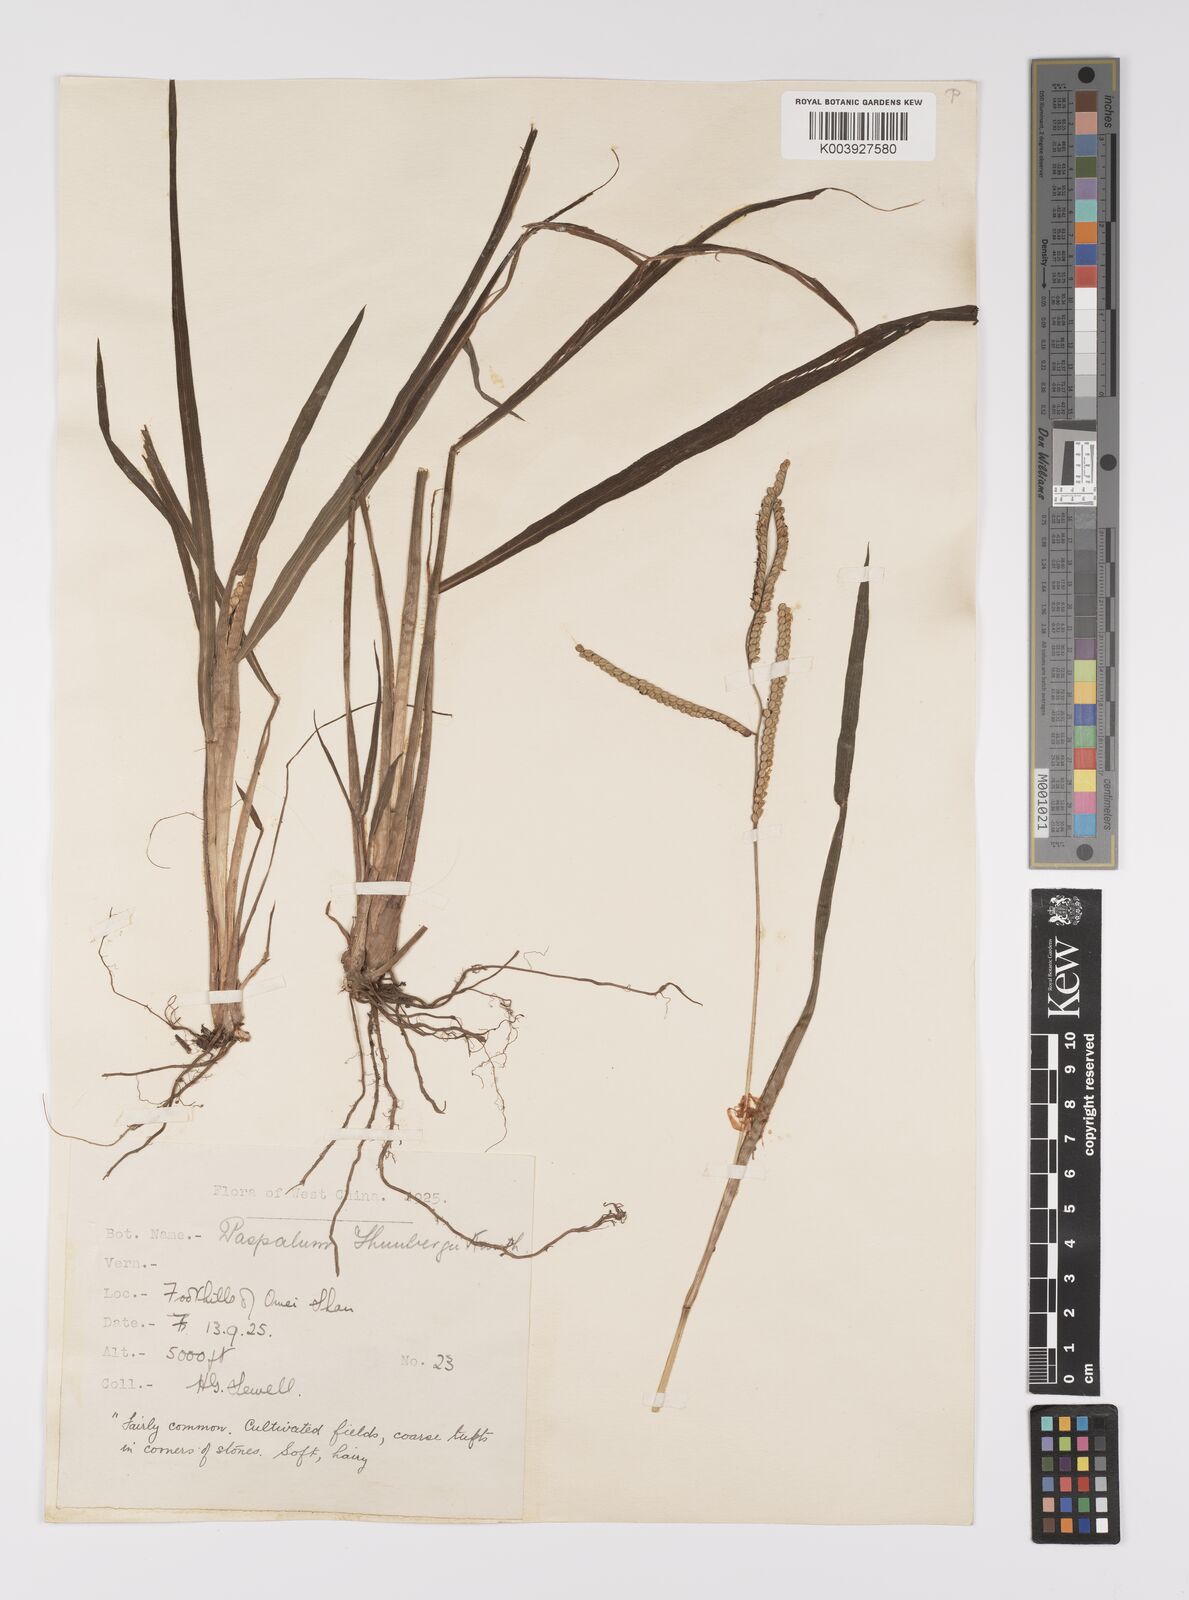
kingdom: Plantae
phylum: Tracheophyta
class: Liliopsida
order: Poales
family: Poaceae
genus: Paspalum
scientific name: Paspalum thunbergii
